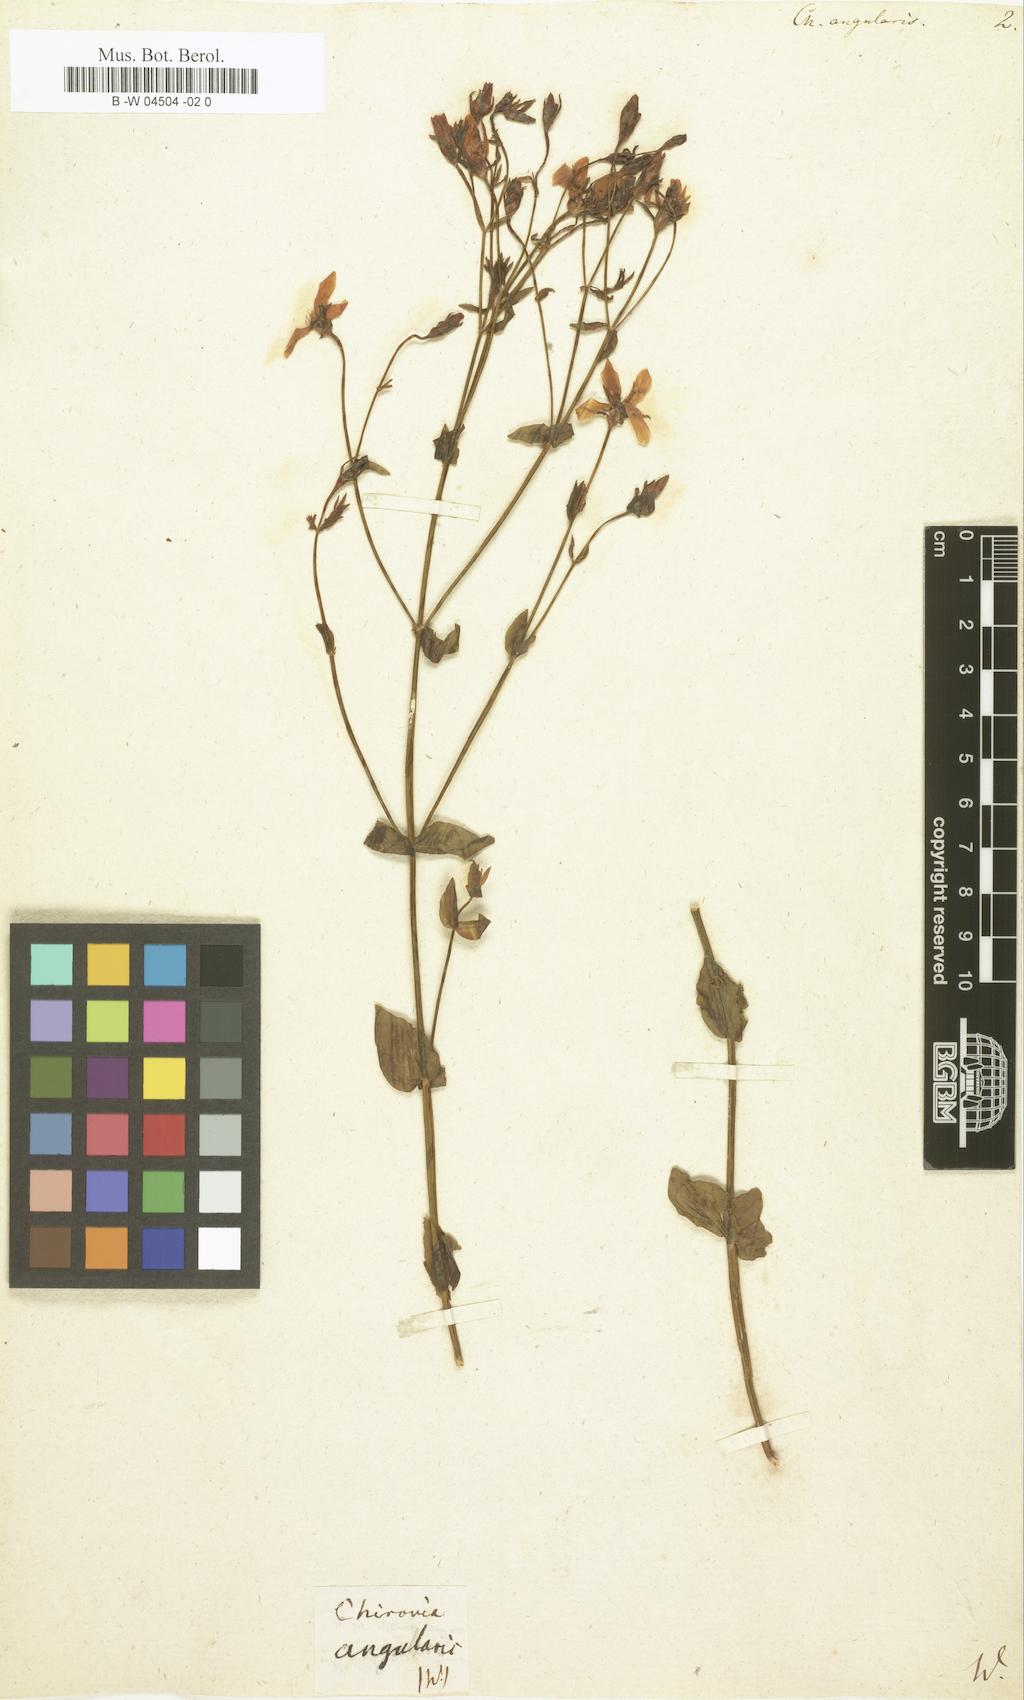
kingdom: Plantae
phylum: Tracheophyta
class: Magnoliopsida
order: Gentianales
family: Gentianaceae
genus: Sabatia
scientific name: Sabatia angularis
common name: Rose-pink
